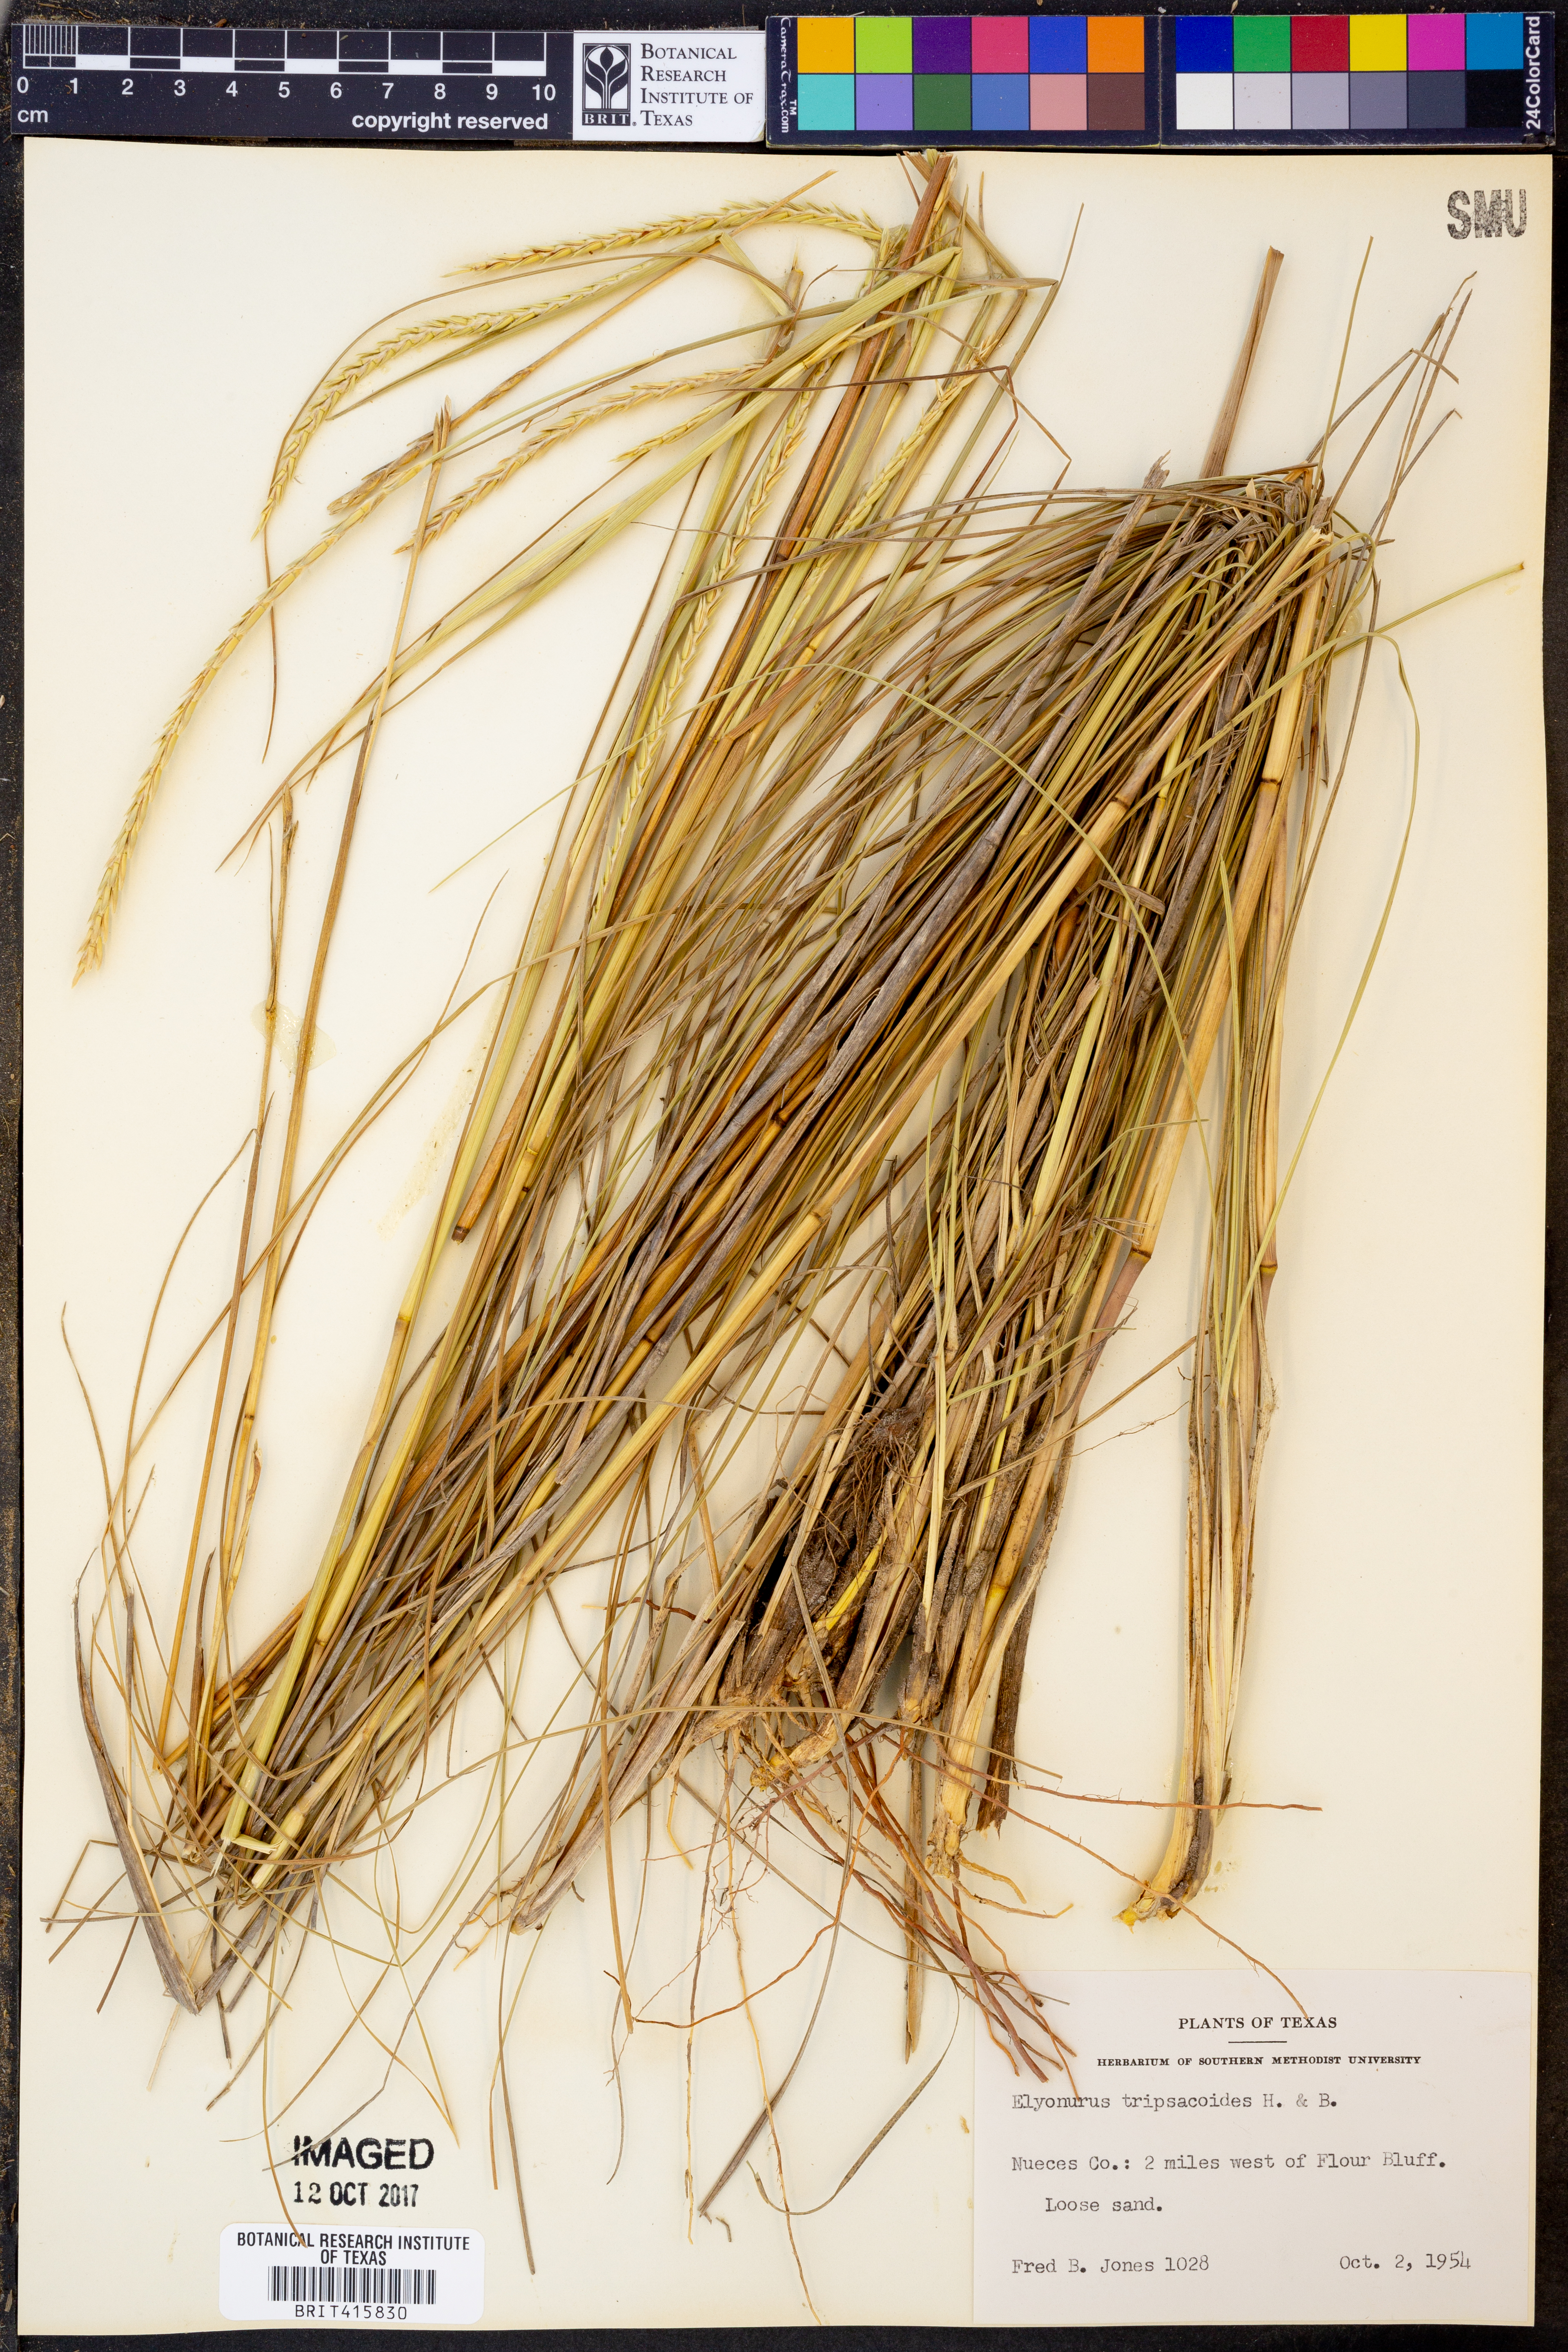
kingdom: Plantae
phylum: Tracheophyta
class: Liliopsida
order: Poales
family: Poaceae
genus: Elionurus
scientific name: Elionurus tripsacoides
